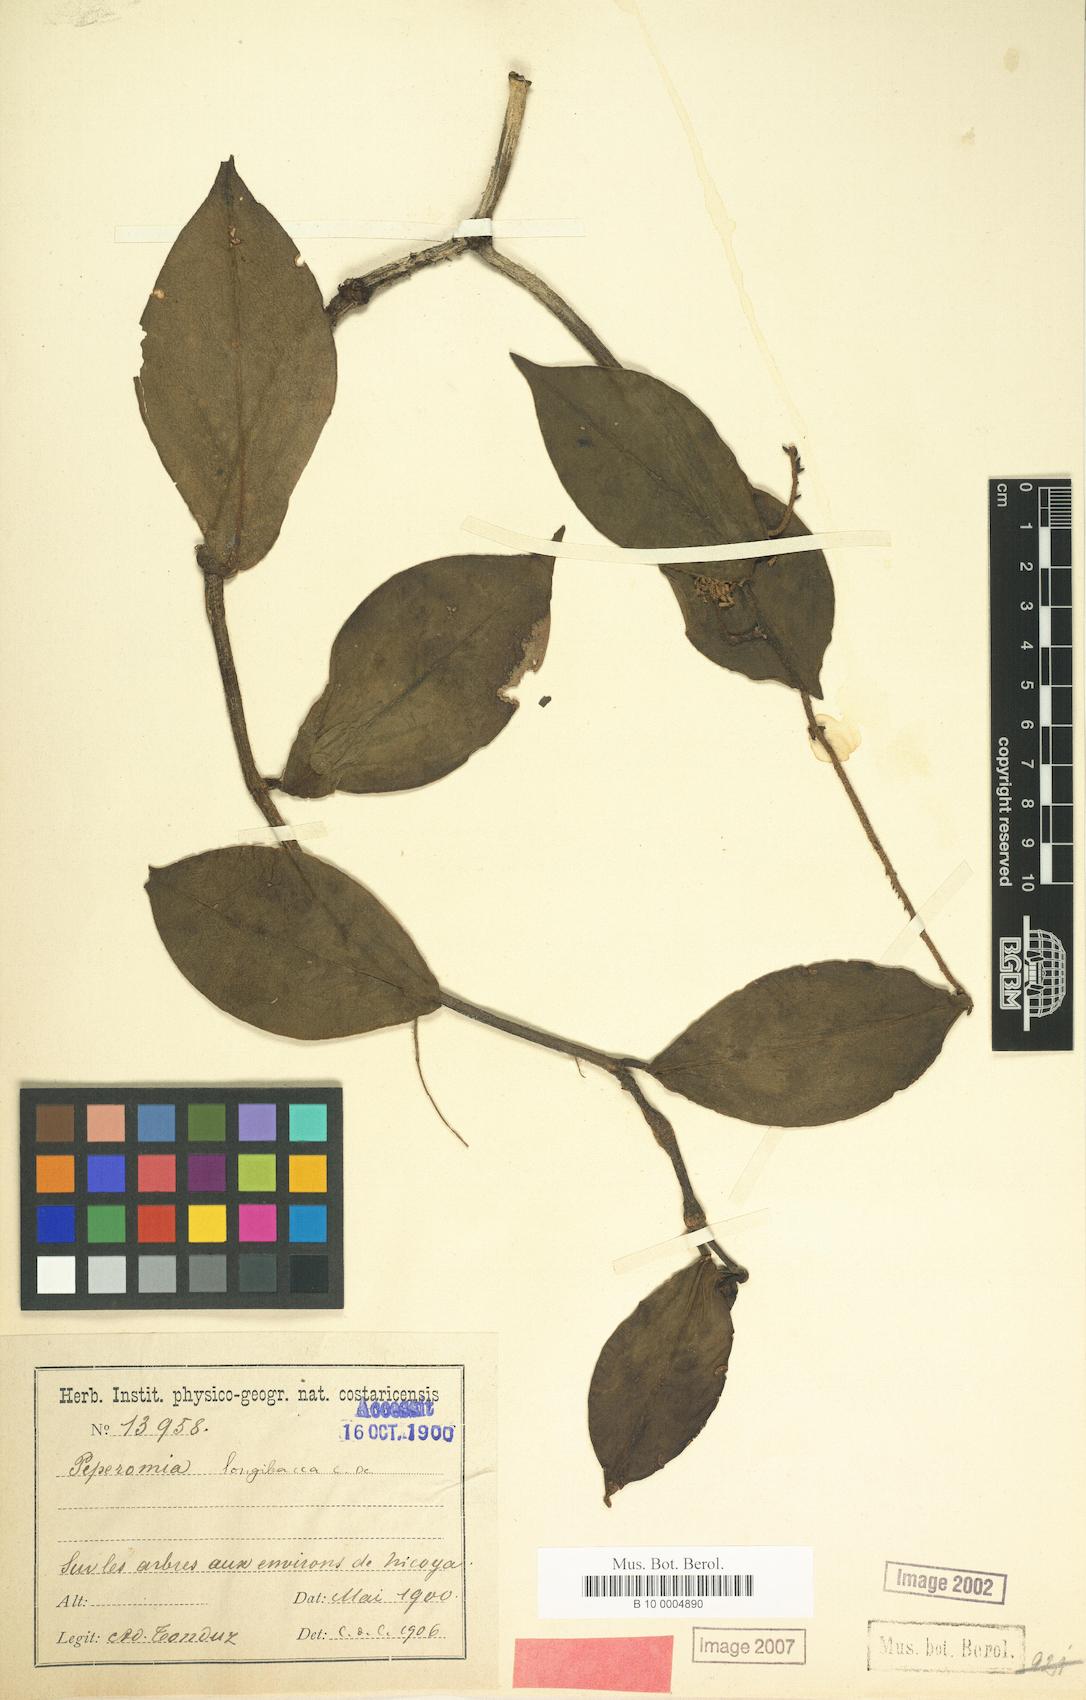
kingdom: Plantae
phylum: Tracheophyta
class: Magnoliopsida
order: Piperales
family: Piperaceae
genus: Peperomia
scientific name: Peperomia naranjoana
